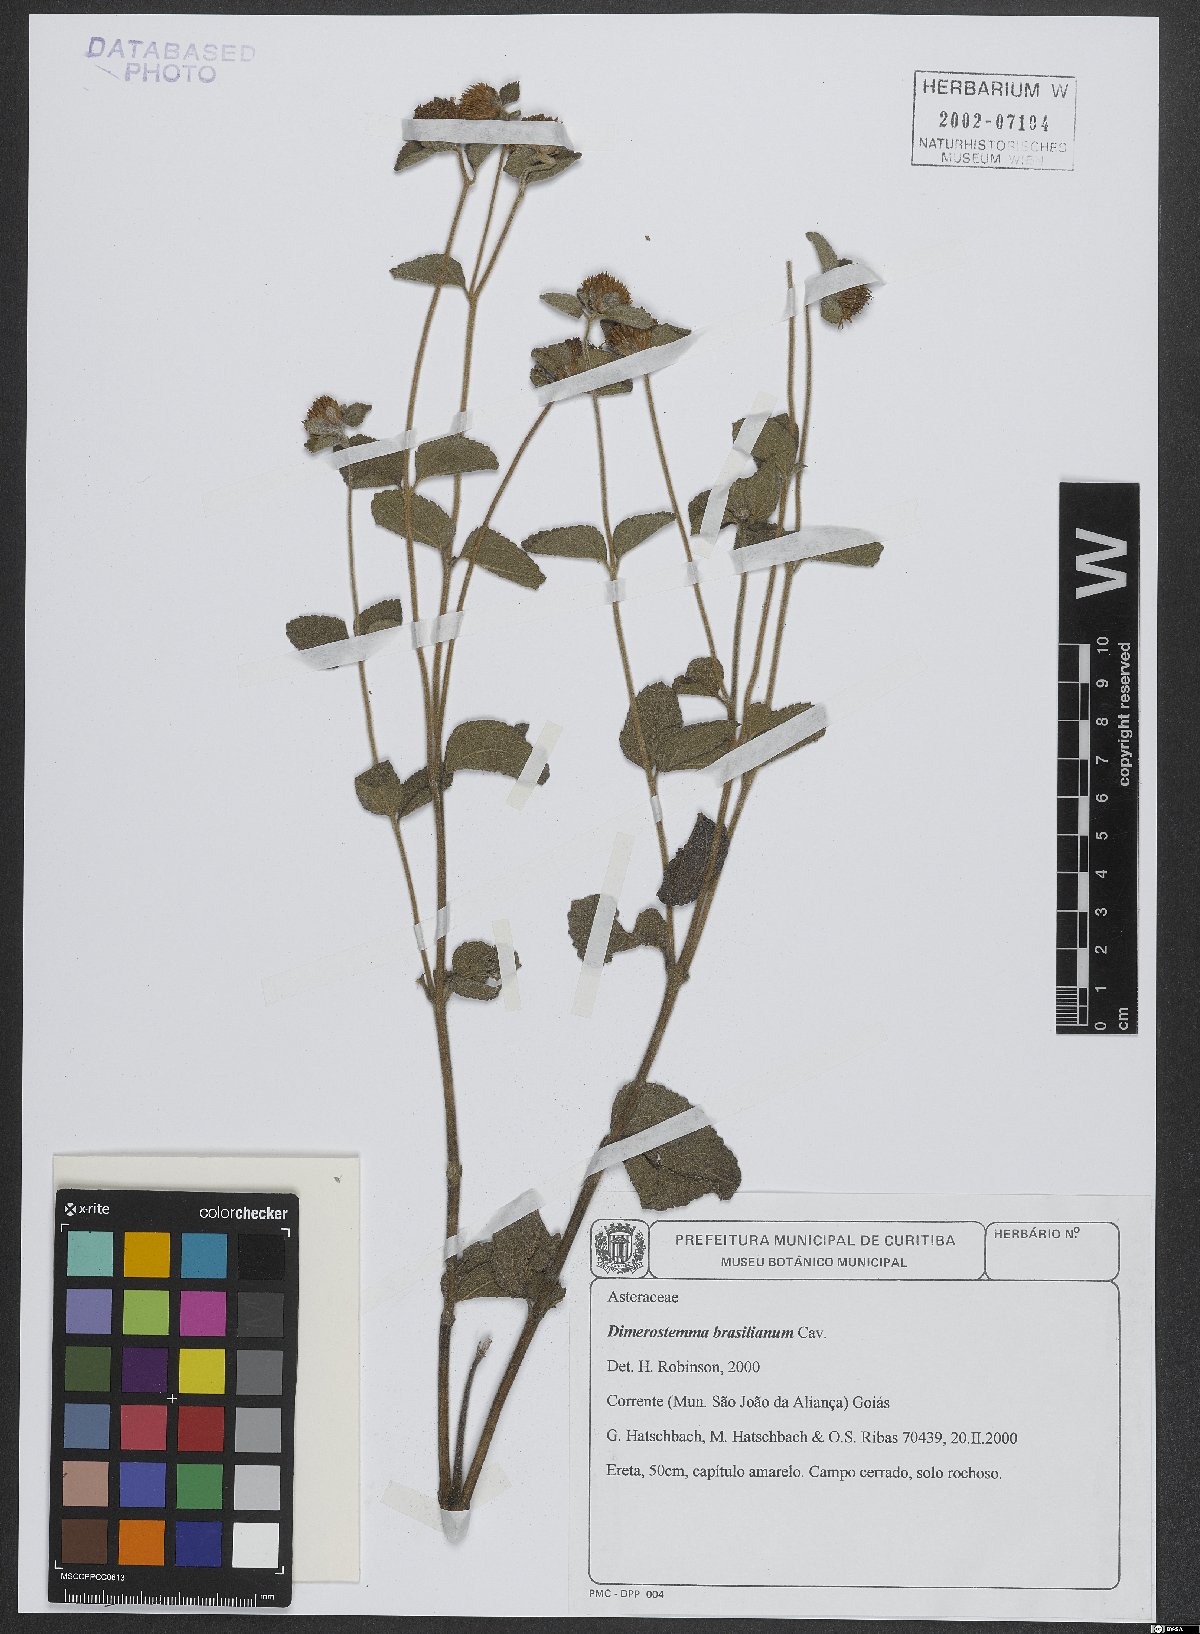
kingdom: Plantae
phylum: Tracheophyta
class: Magnoliopsida
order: Asterales
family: Asteraceae
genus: Dimerostemma
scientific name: Dimerostemma brasilianum
